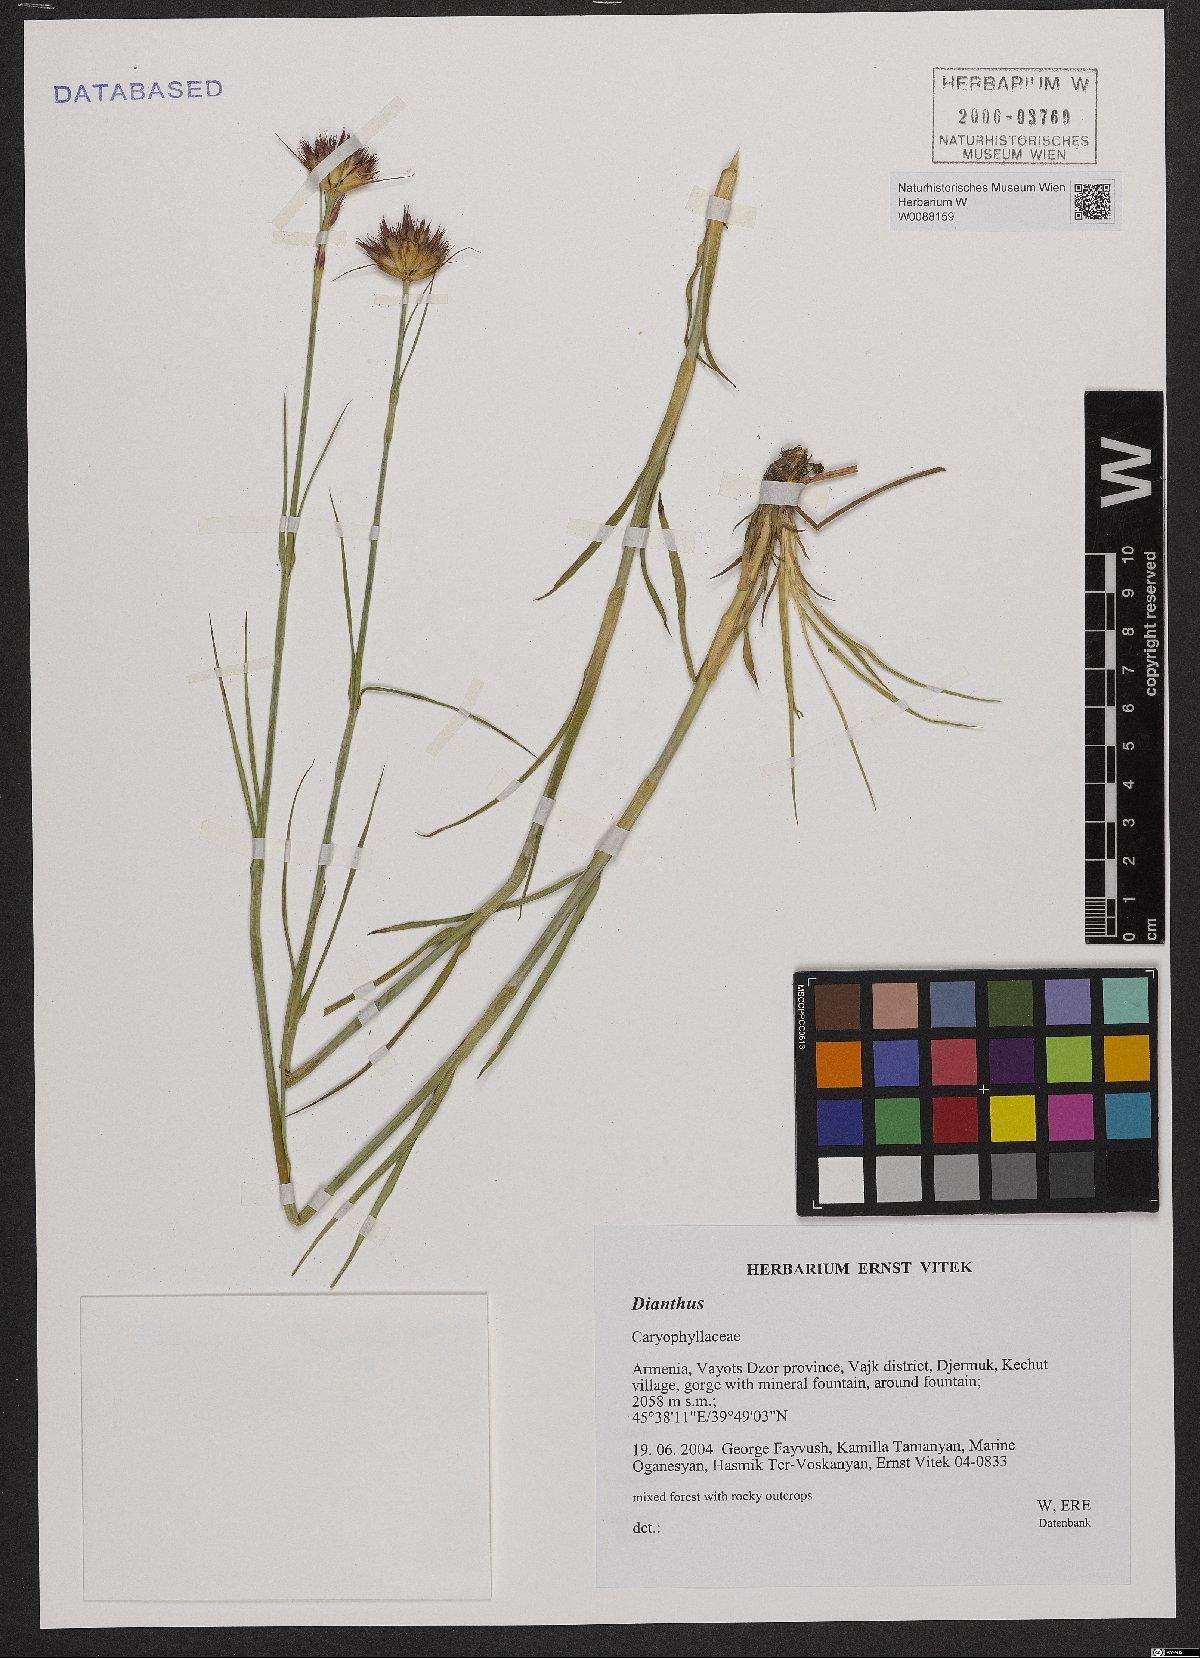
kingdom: Plantae
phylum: Tracheophyta
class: Magnoliopsida
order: Caryophyllales
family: Caryophyllaceae
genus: Dianthus
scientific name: Dianthus
